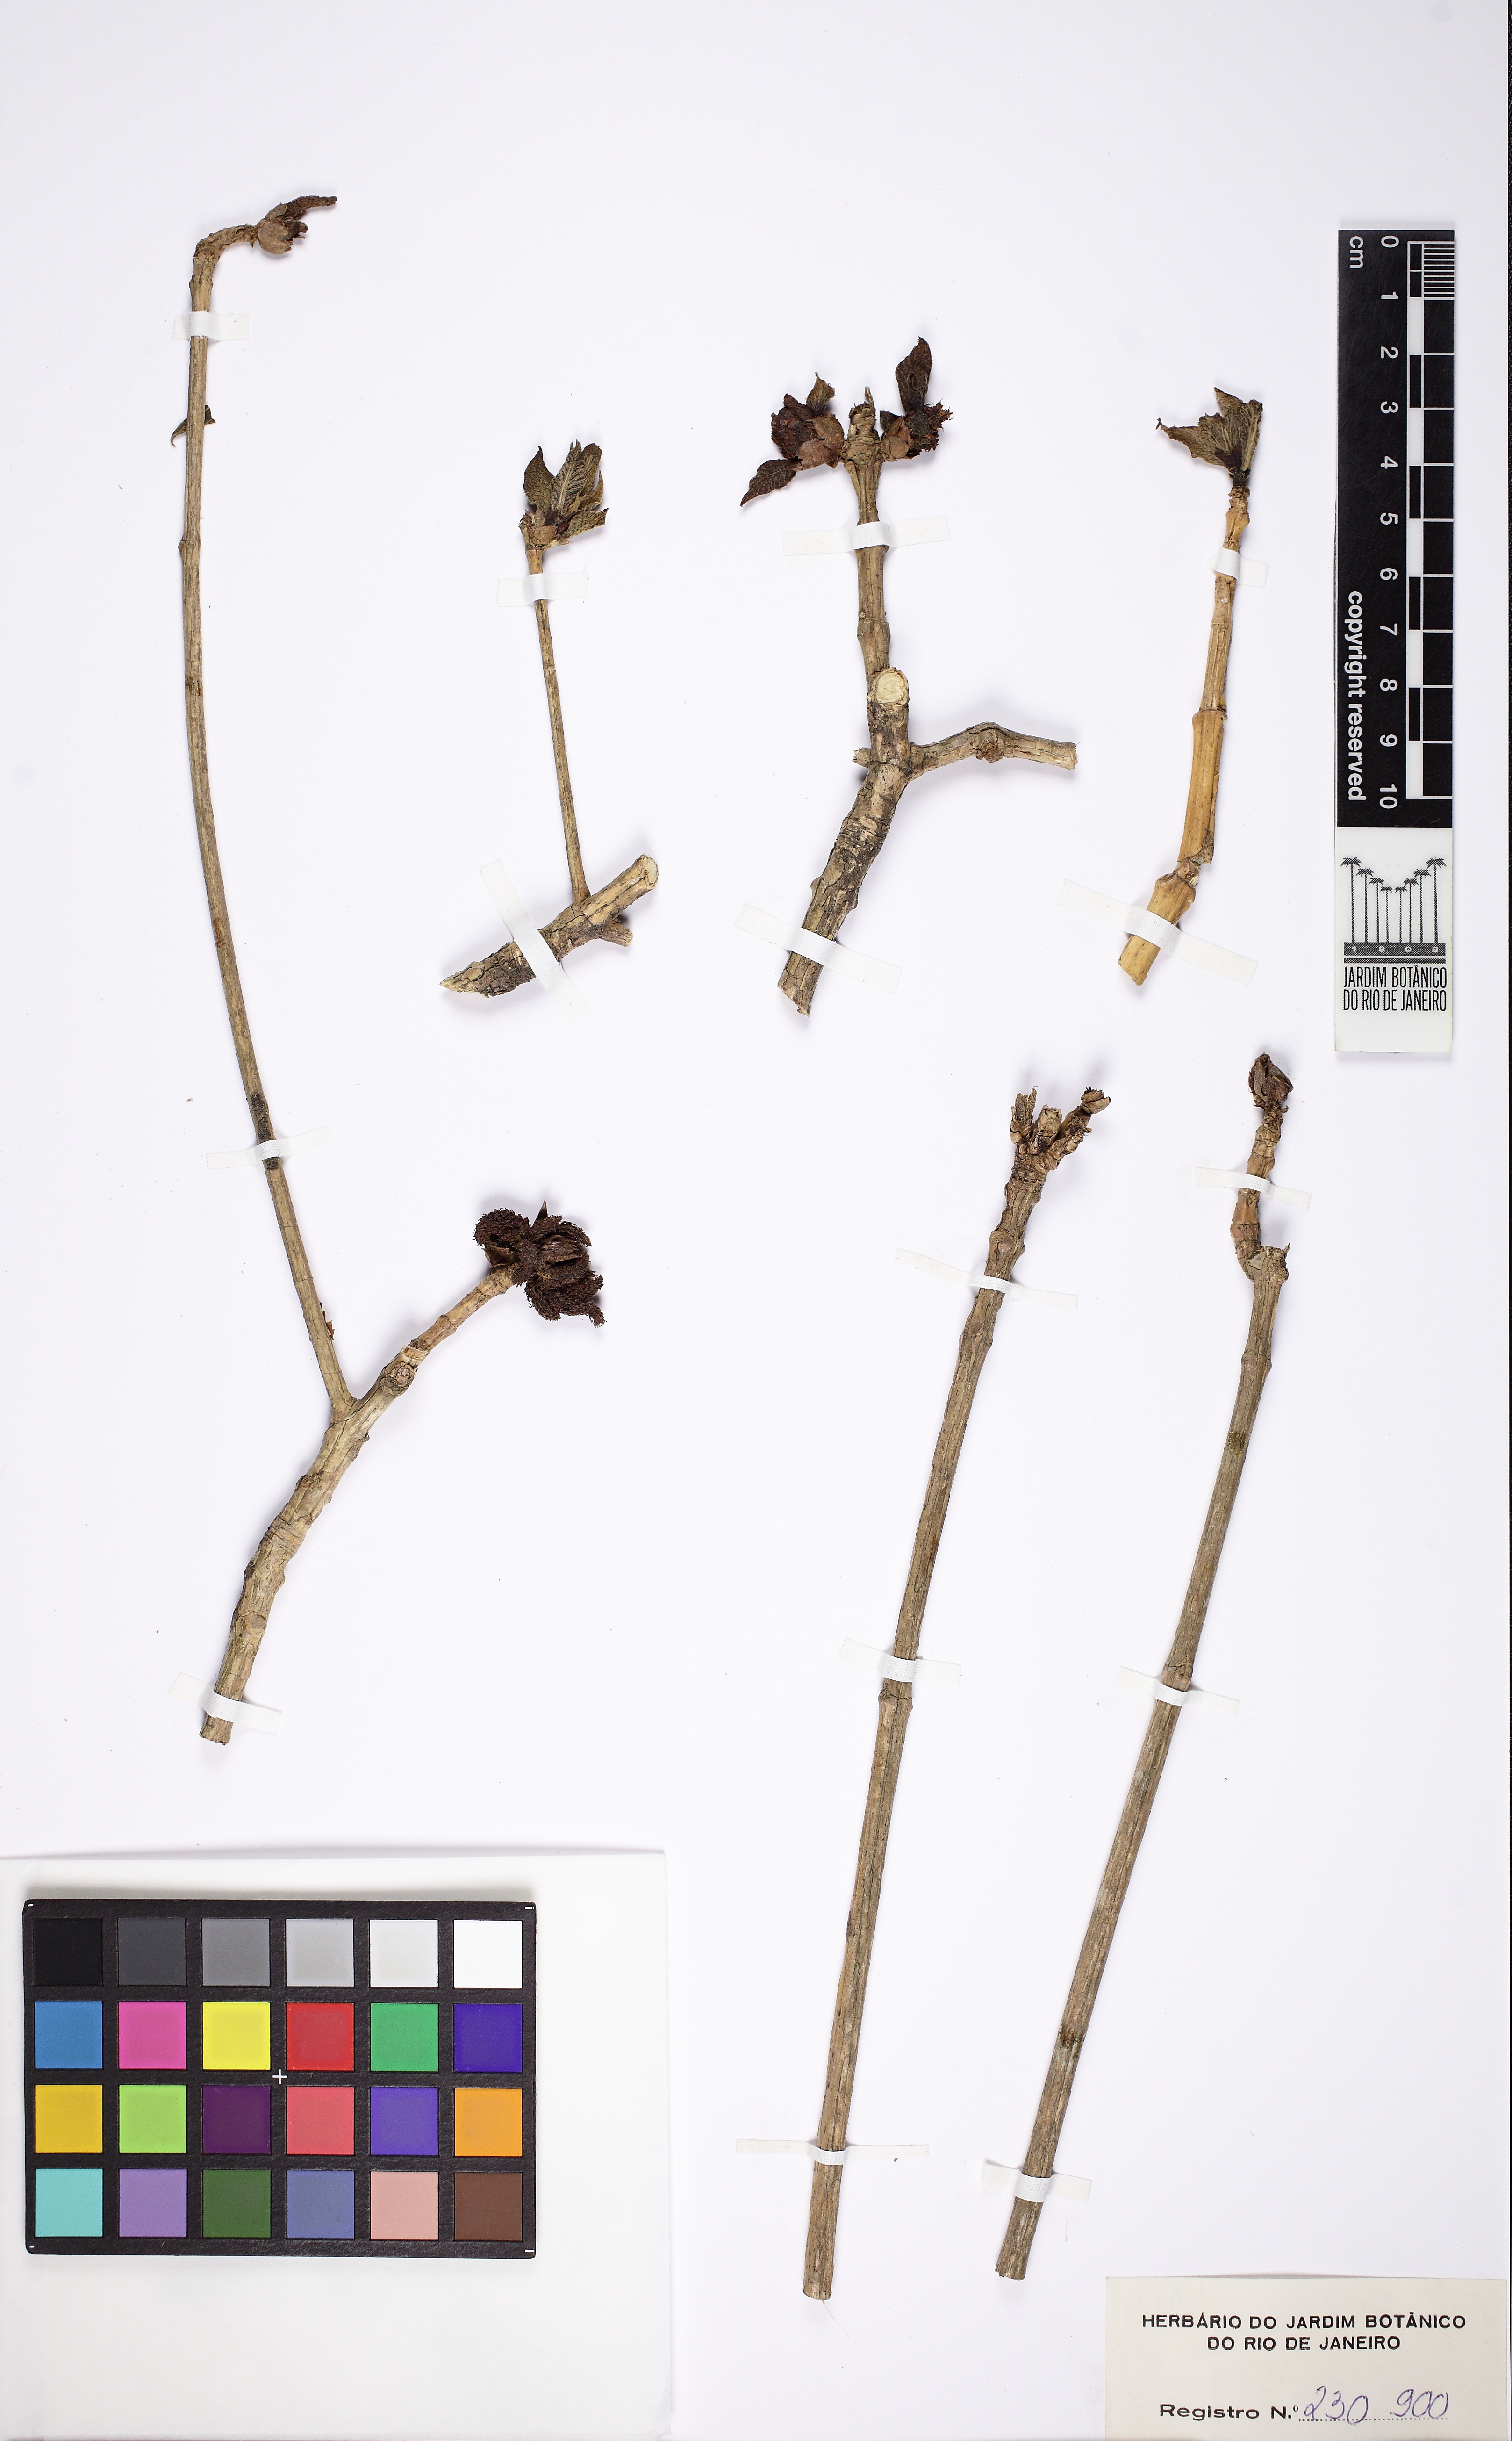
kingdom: Plantae
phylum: Tracheophyta
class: Magnoliopsida
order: Gentianales
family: Rubiaceae
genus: Alseis
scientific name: Alseis floribunda
